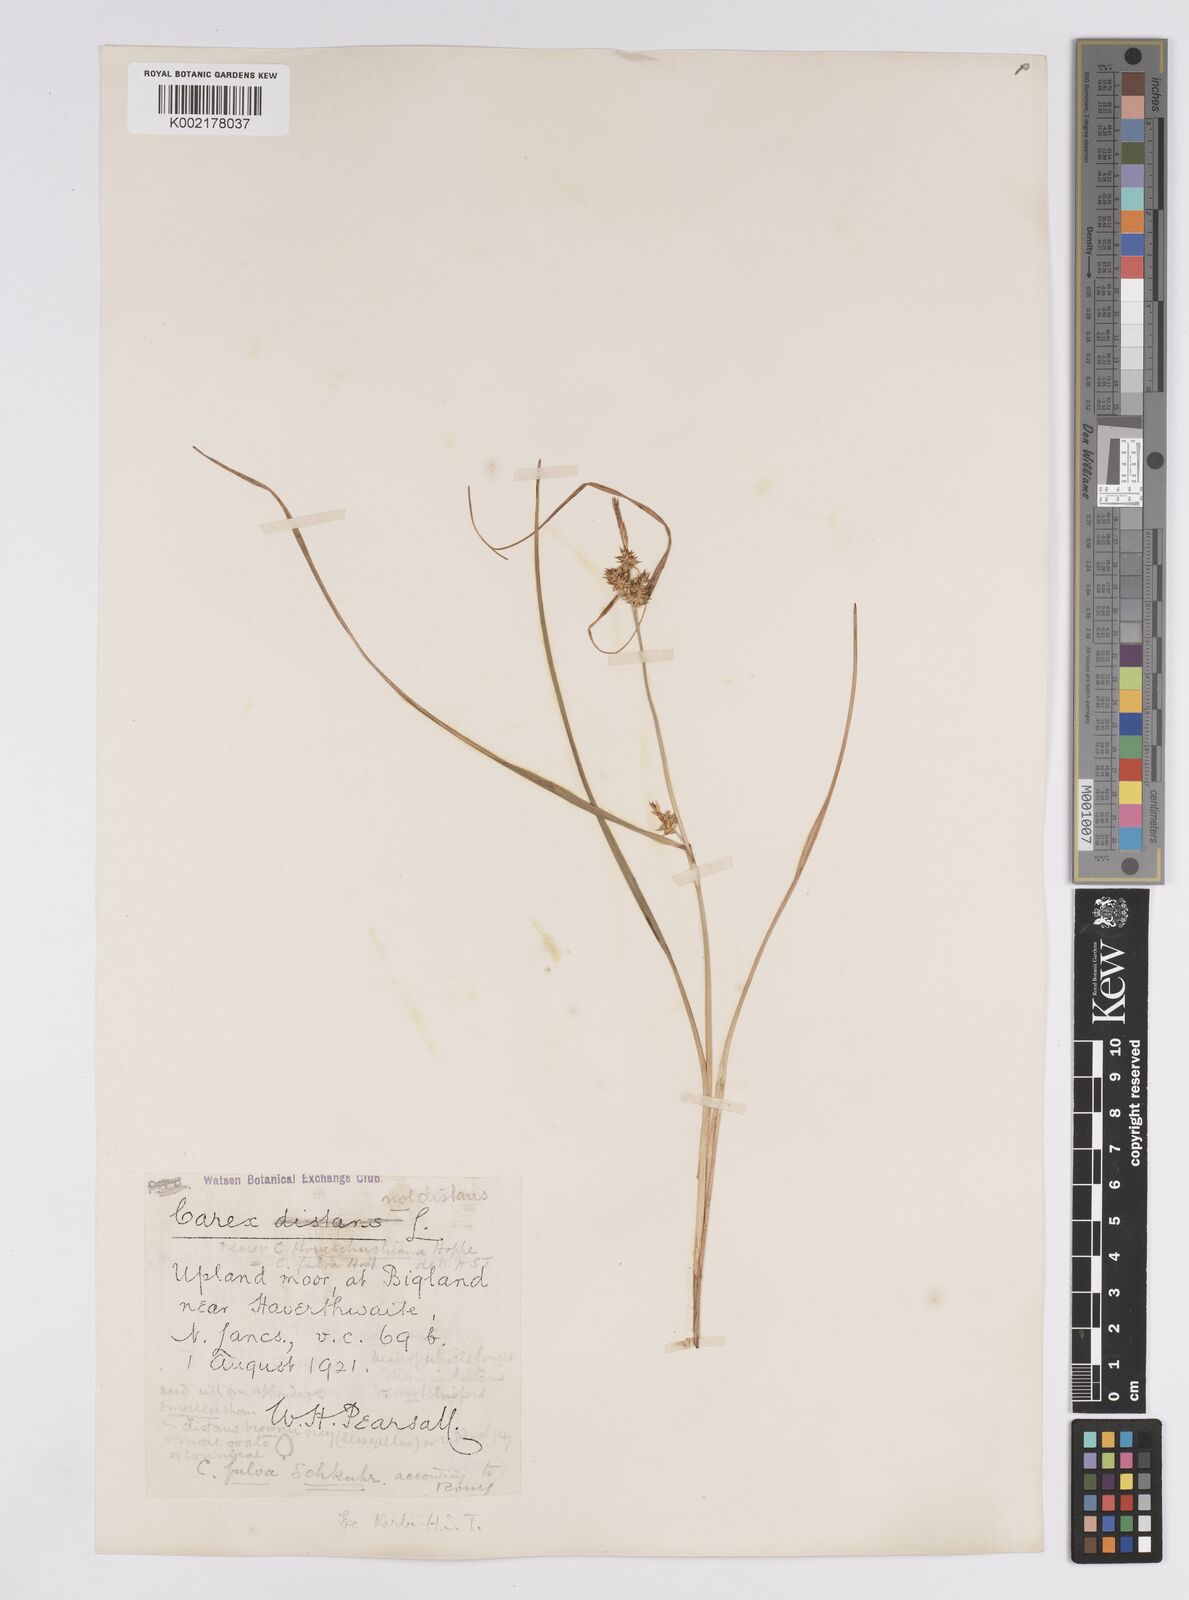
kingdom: Plantae
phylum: Tracheophyta
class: Liliopsida
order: Poales
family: Cyperaceae
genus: Carex
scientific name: Carex demissa
